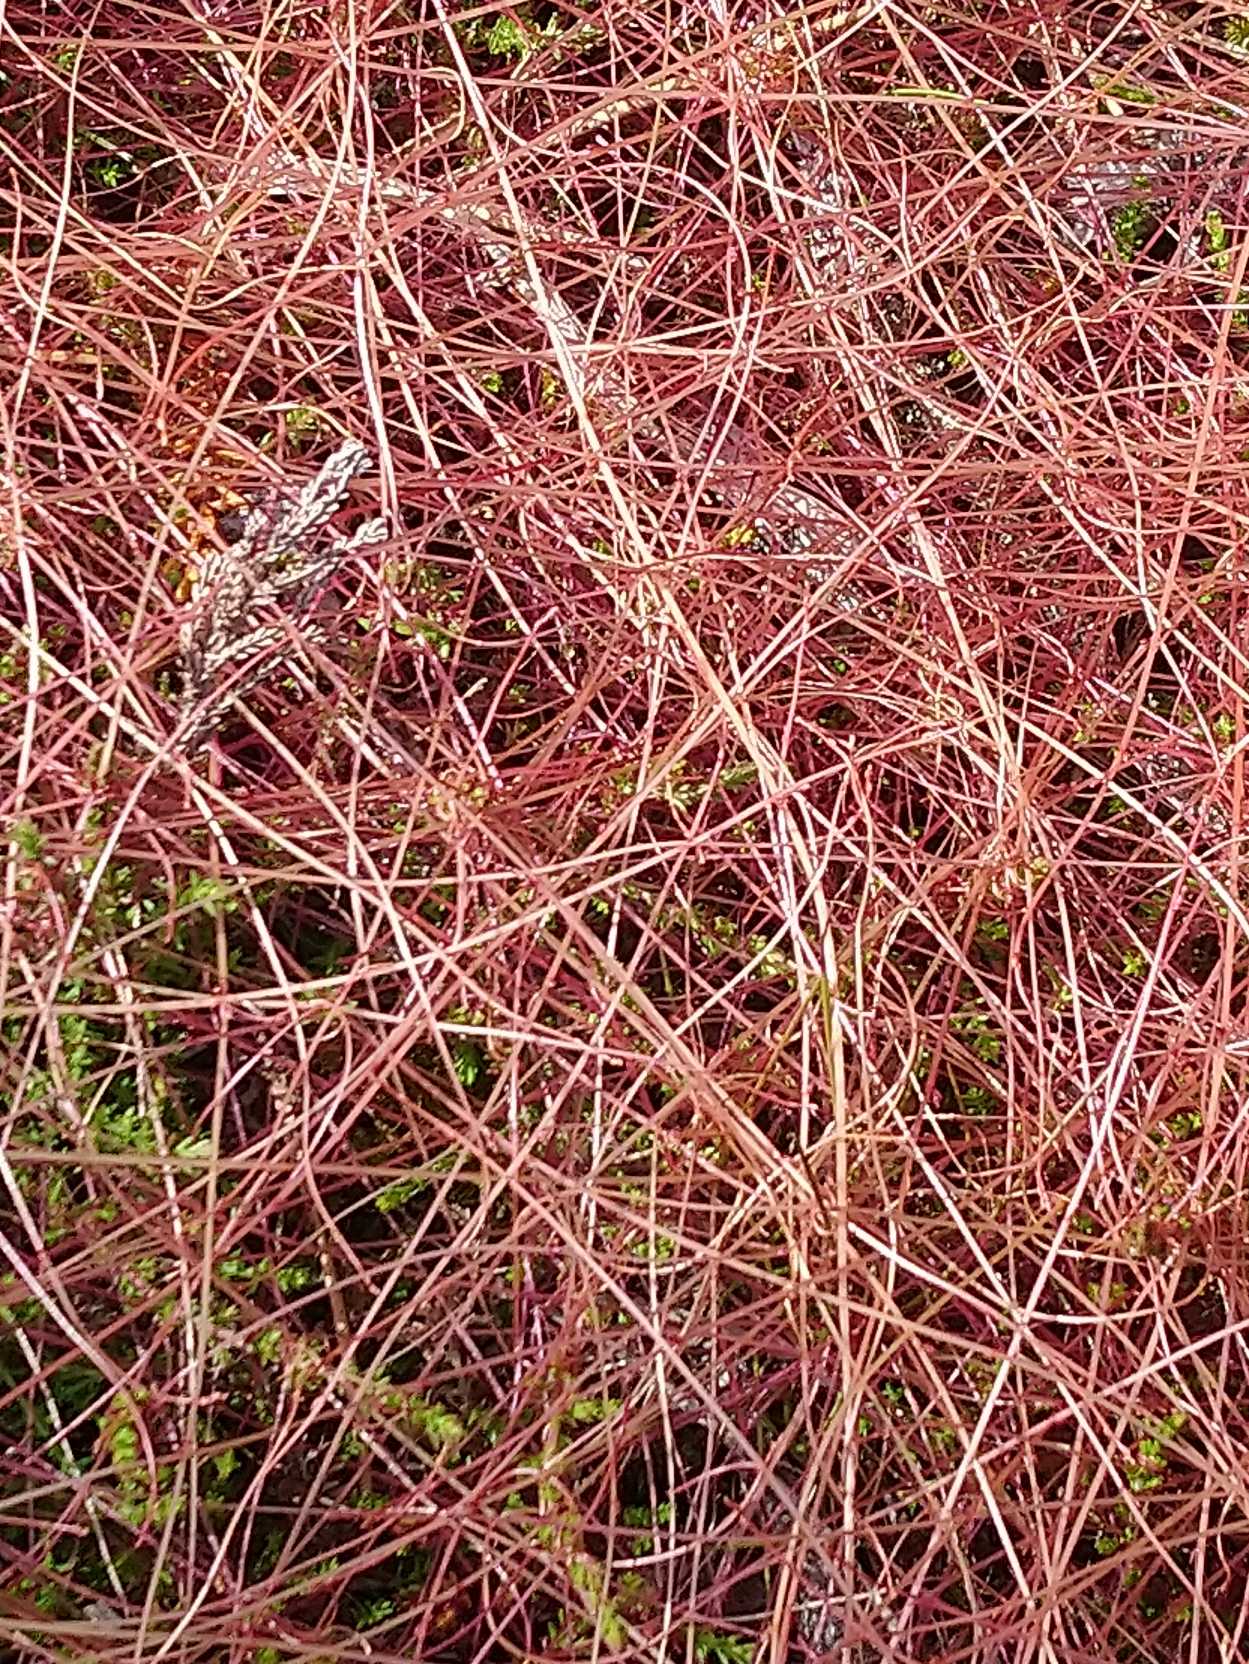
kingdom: Plantae
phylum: Tracheophyta
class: Magnoliopsida
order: Solanales
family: Convolvulaceae
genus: Cuscuta
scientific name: Cuscuta epithymum
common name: Lyng-silke
